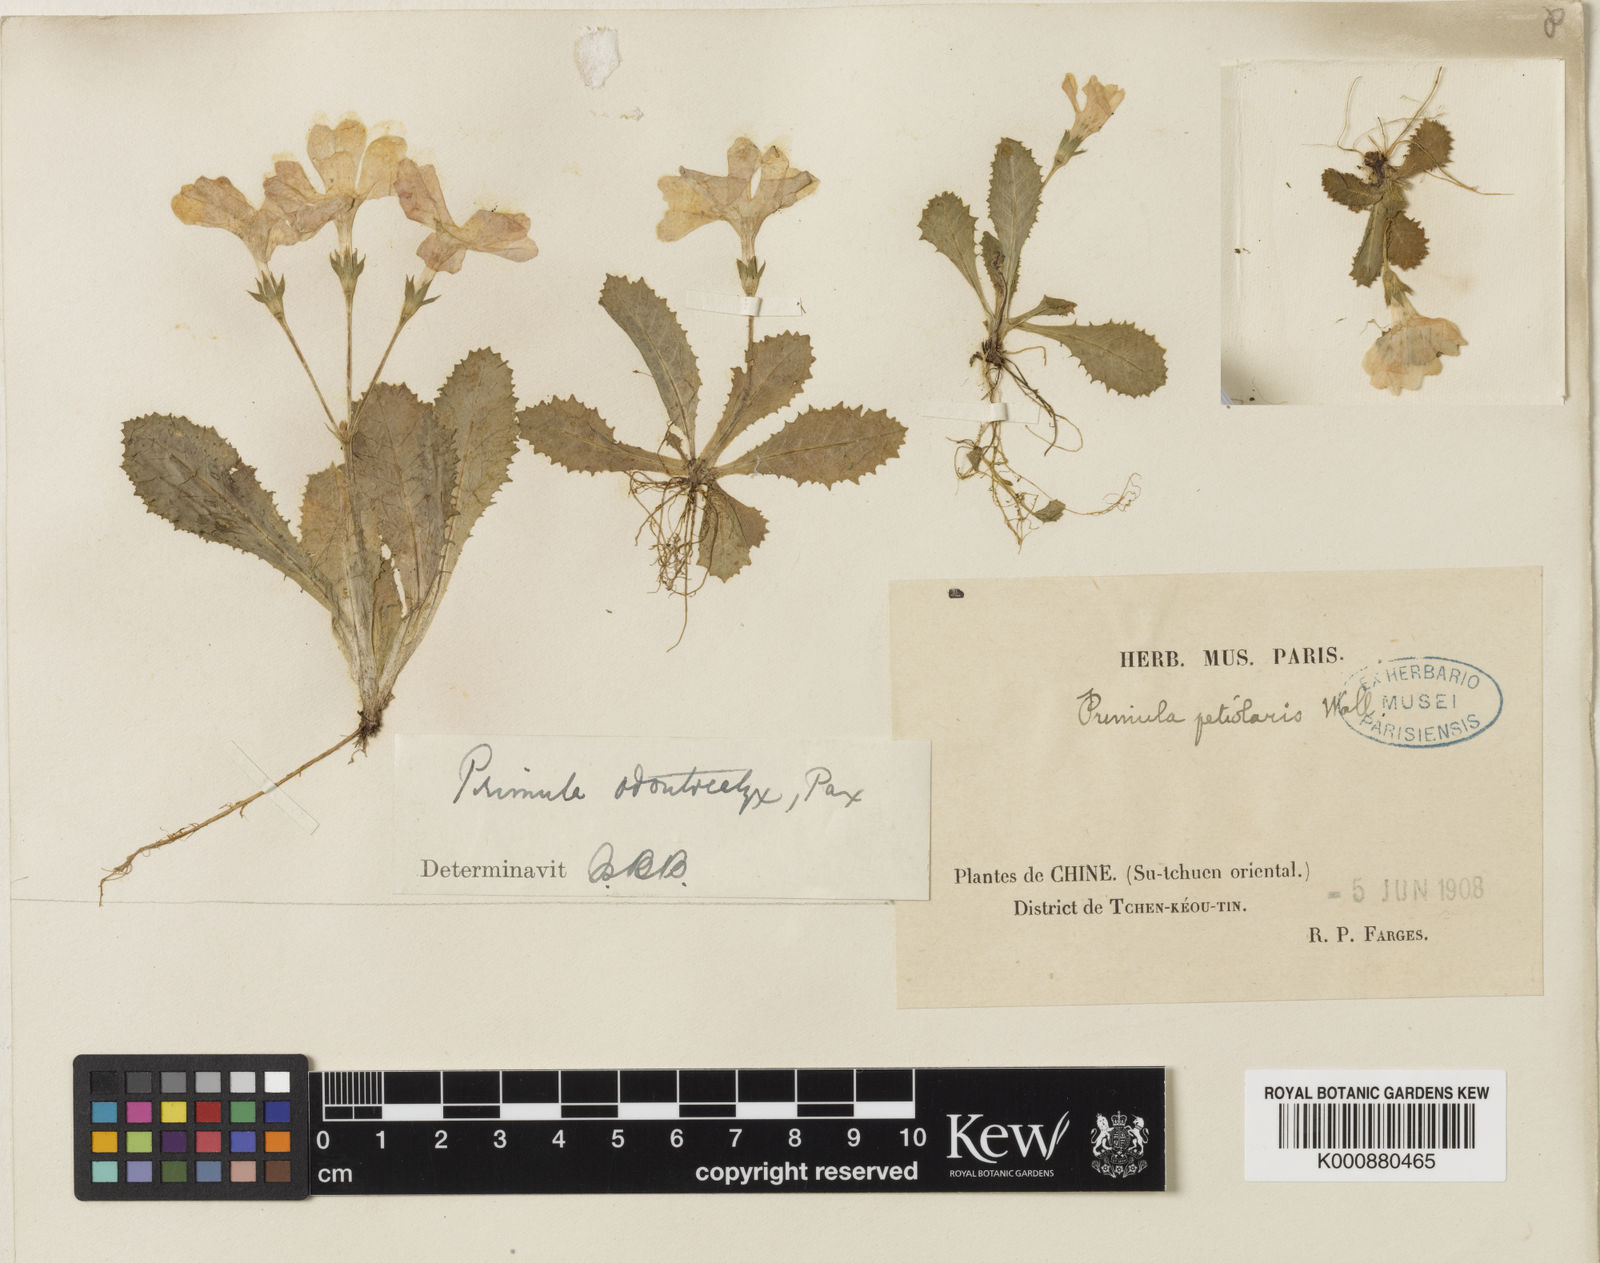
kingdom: Plantae
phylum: Tracheophyta
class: Magnoliopsida
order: Ericales
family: Primulaceae
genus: Primula
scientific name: Primula
